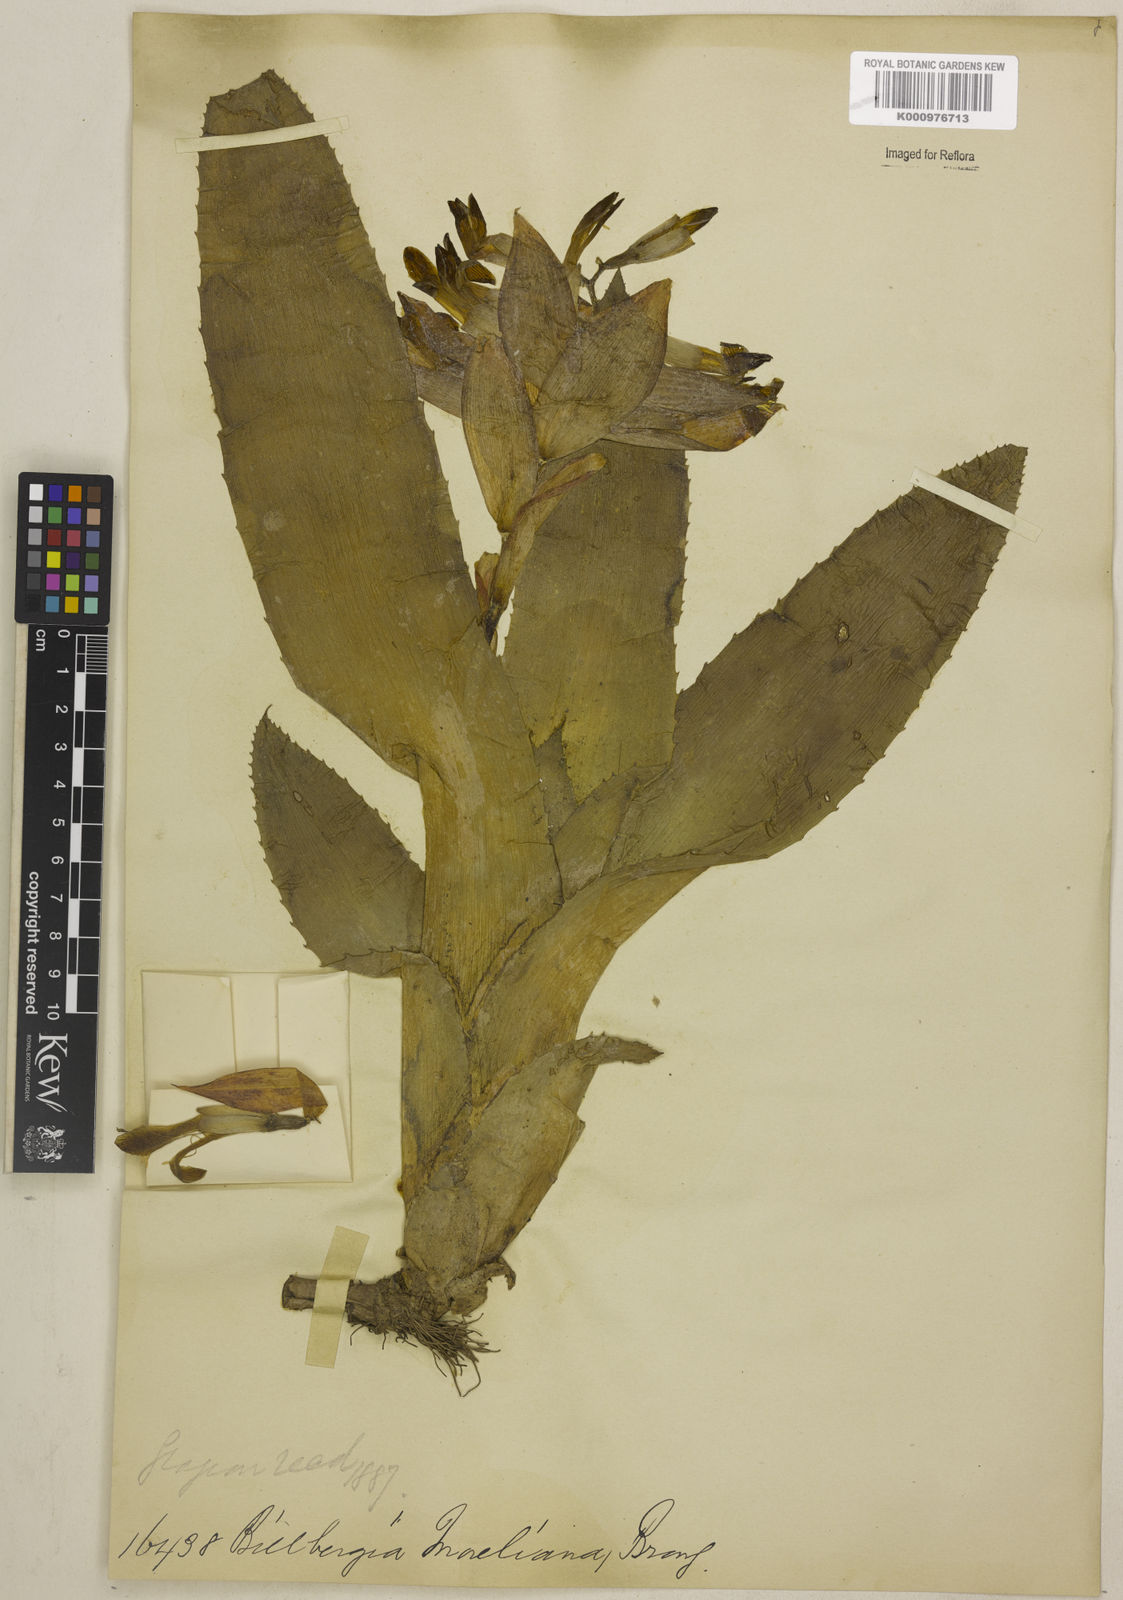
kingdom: Plantae
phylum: Tracheophyta
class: Liliopsida
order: Poales
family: Bromeliaceae
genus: Billbergia
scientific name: Billbergia morelii
